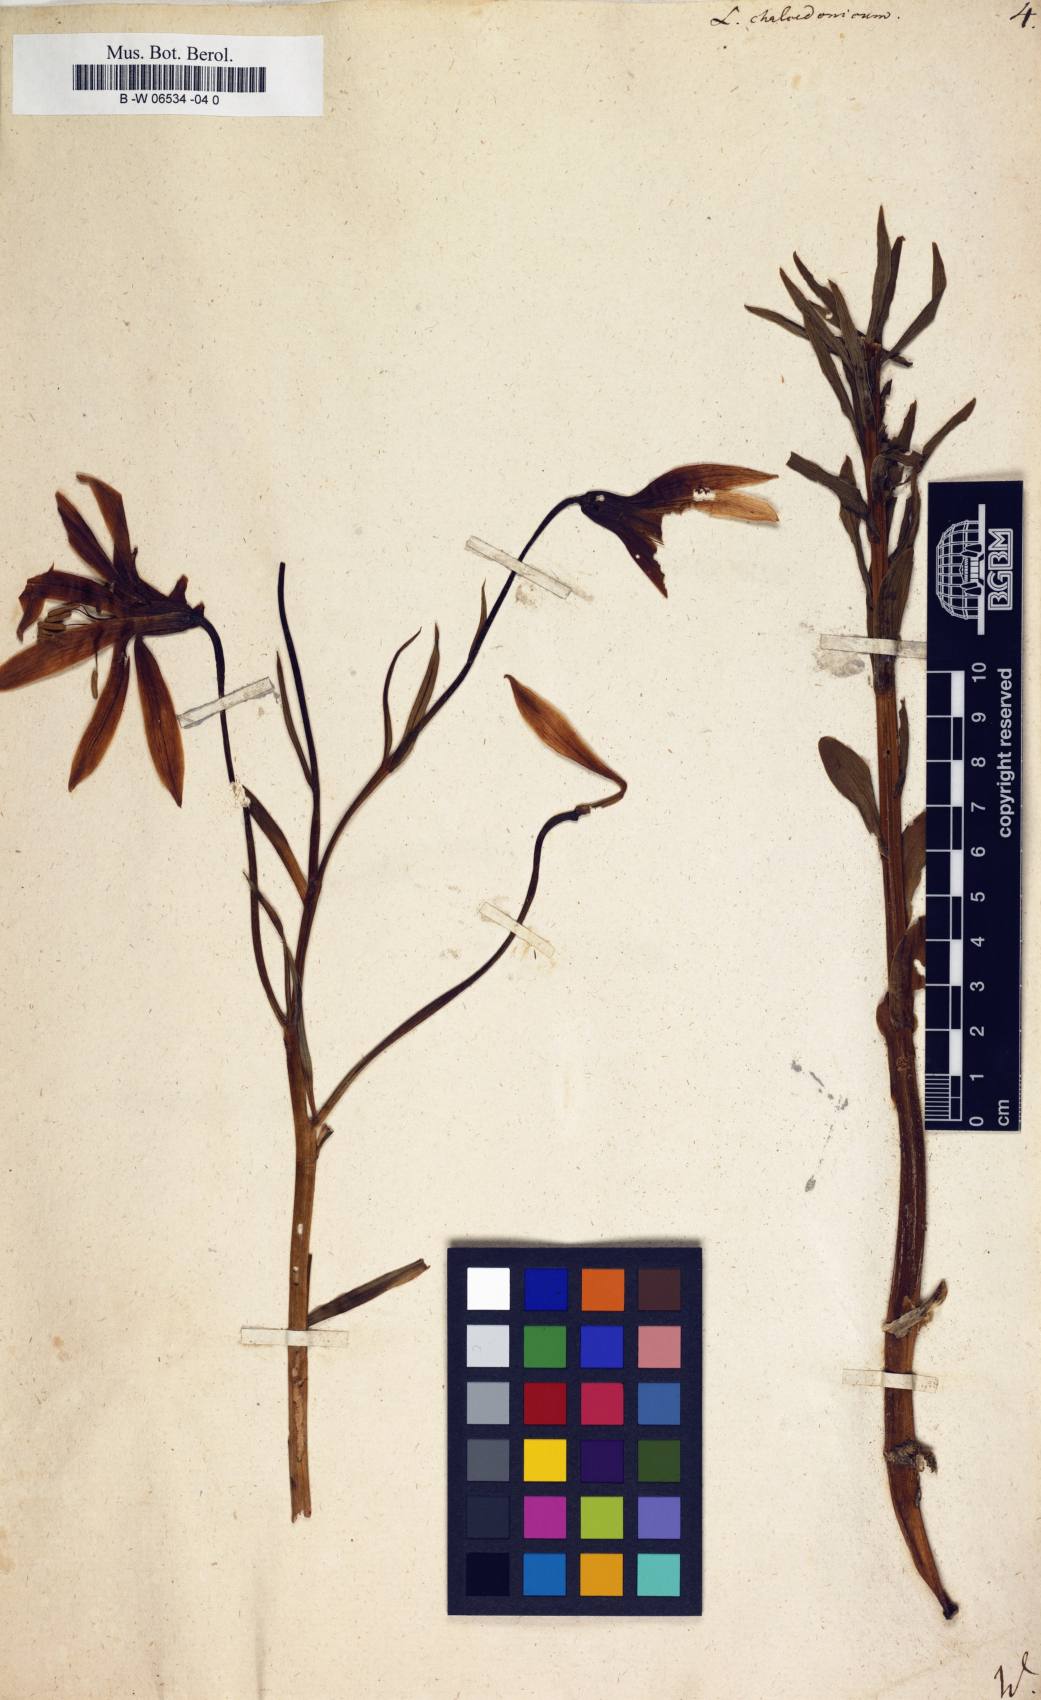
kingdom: Plantae
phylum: Tracheophyta
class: Liliopsida
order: Liliales
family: Liliaceae
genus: Lilium
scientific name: Lilium chalcedonicum
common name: Red martagon of constantinople
